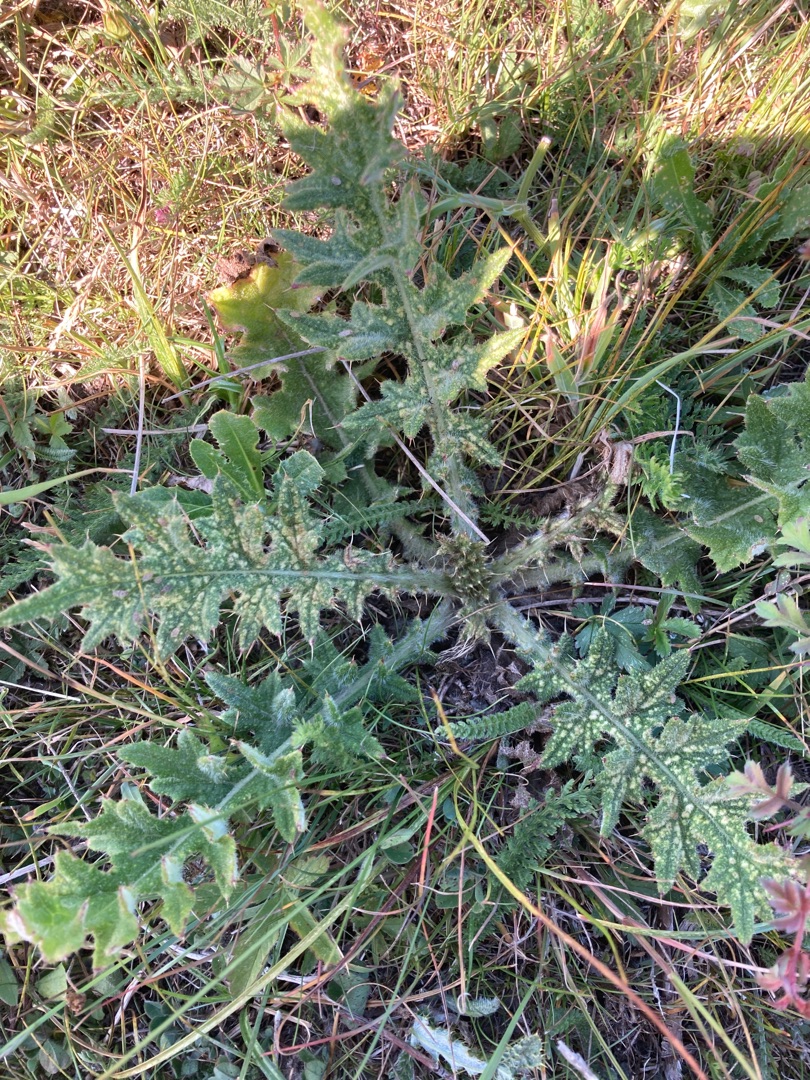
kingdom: Plantae
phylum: Tracheophyta
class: Magnoliopsida
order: Asterales
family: Asteraceae
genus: Cirsium
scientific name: Cirsium vulgare
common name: Horse-tidsel
